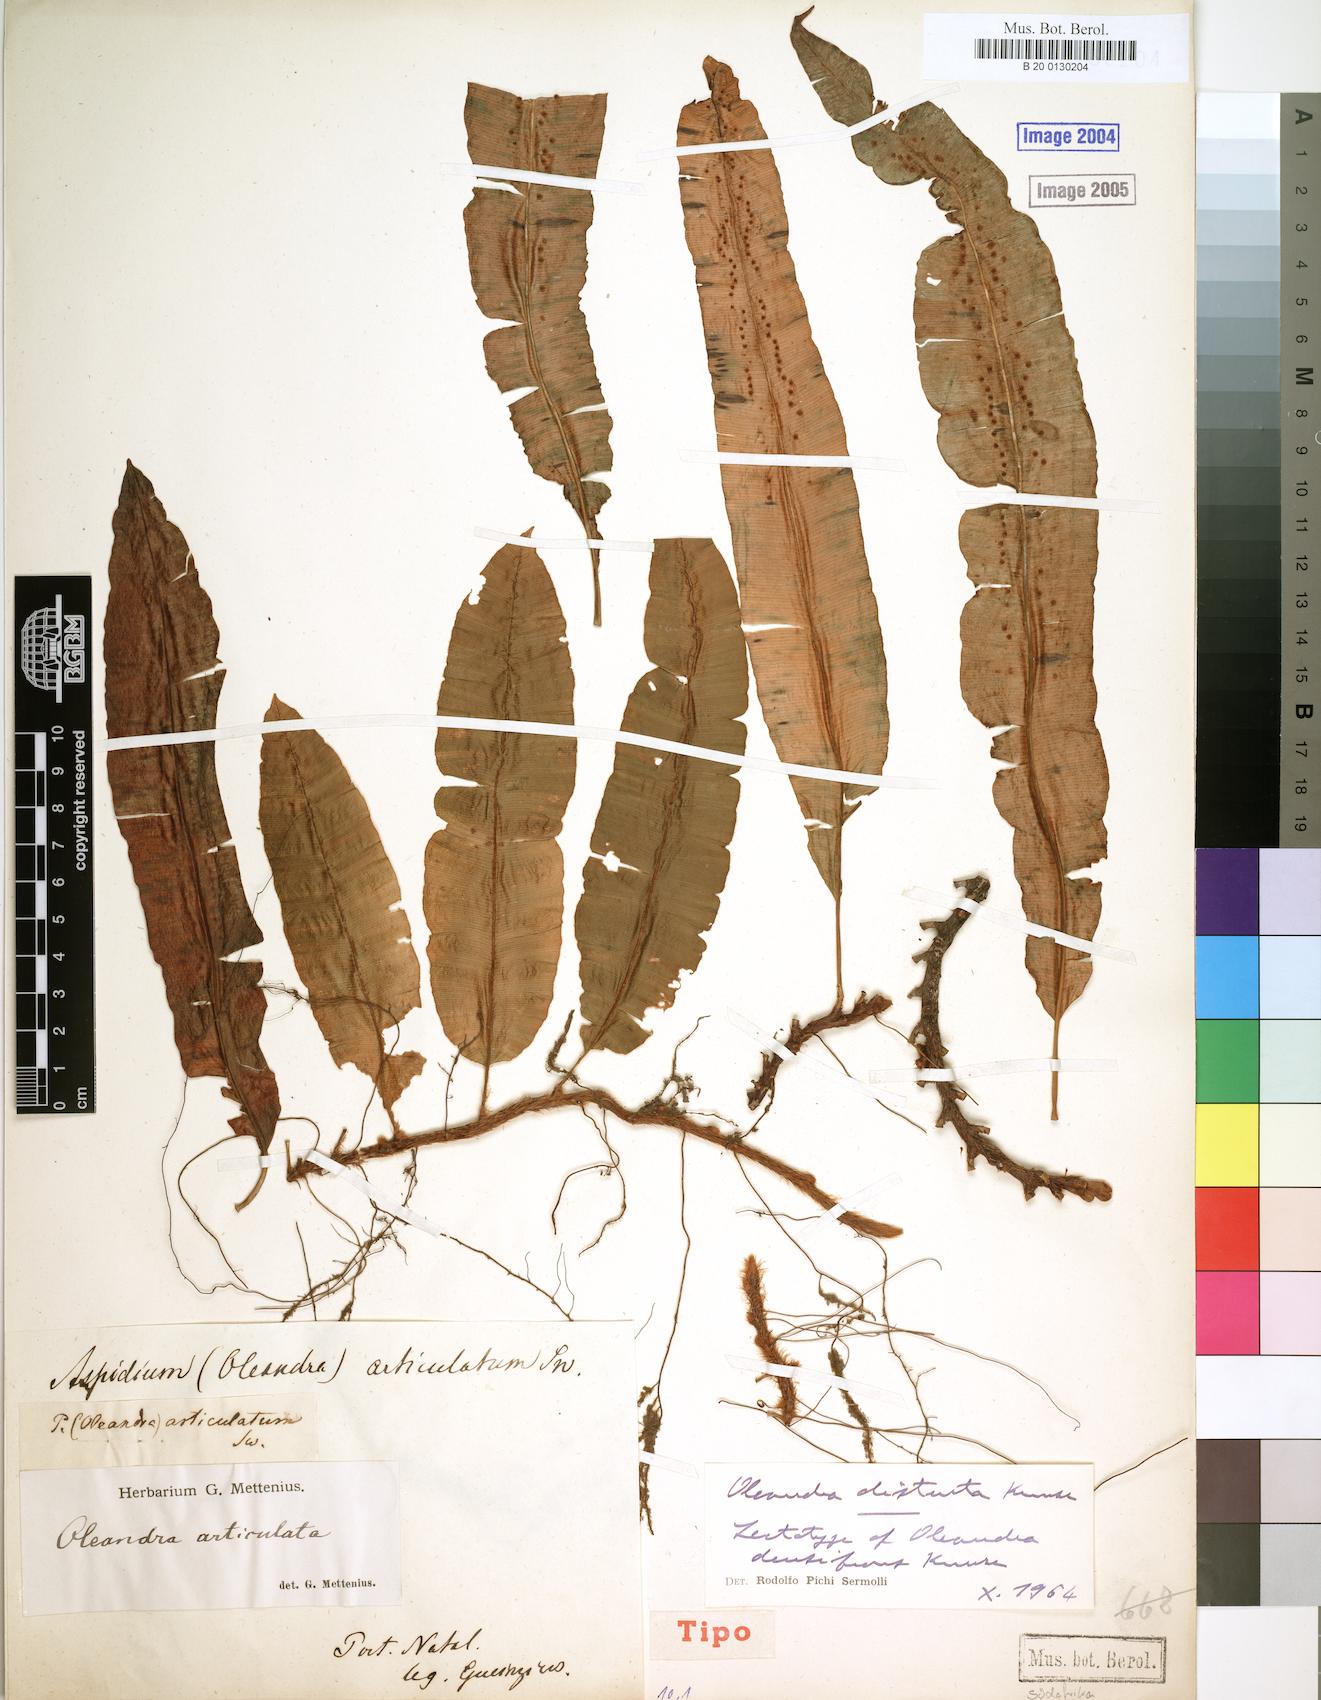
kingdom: Plantae
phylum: Tracheophyta
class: Polypodiopsida
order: Polypodiales
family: Oleandraceae
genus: Oleandra
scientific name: Oleandra distenta
